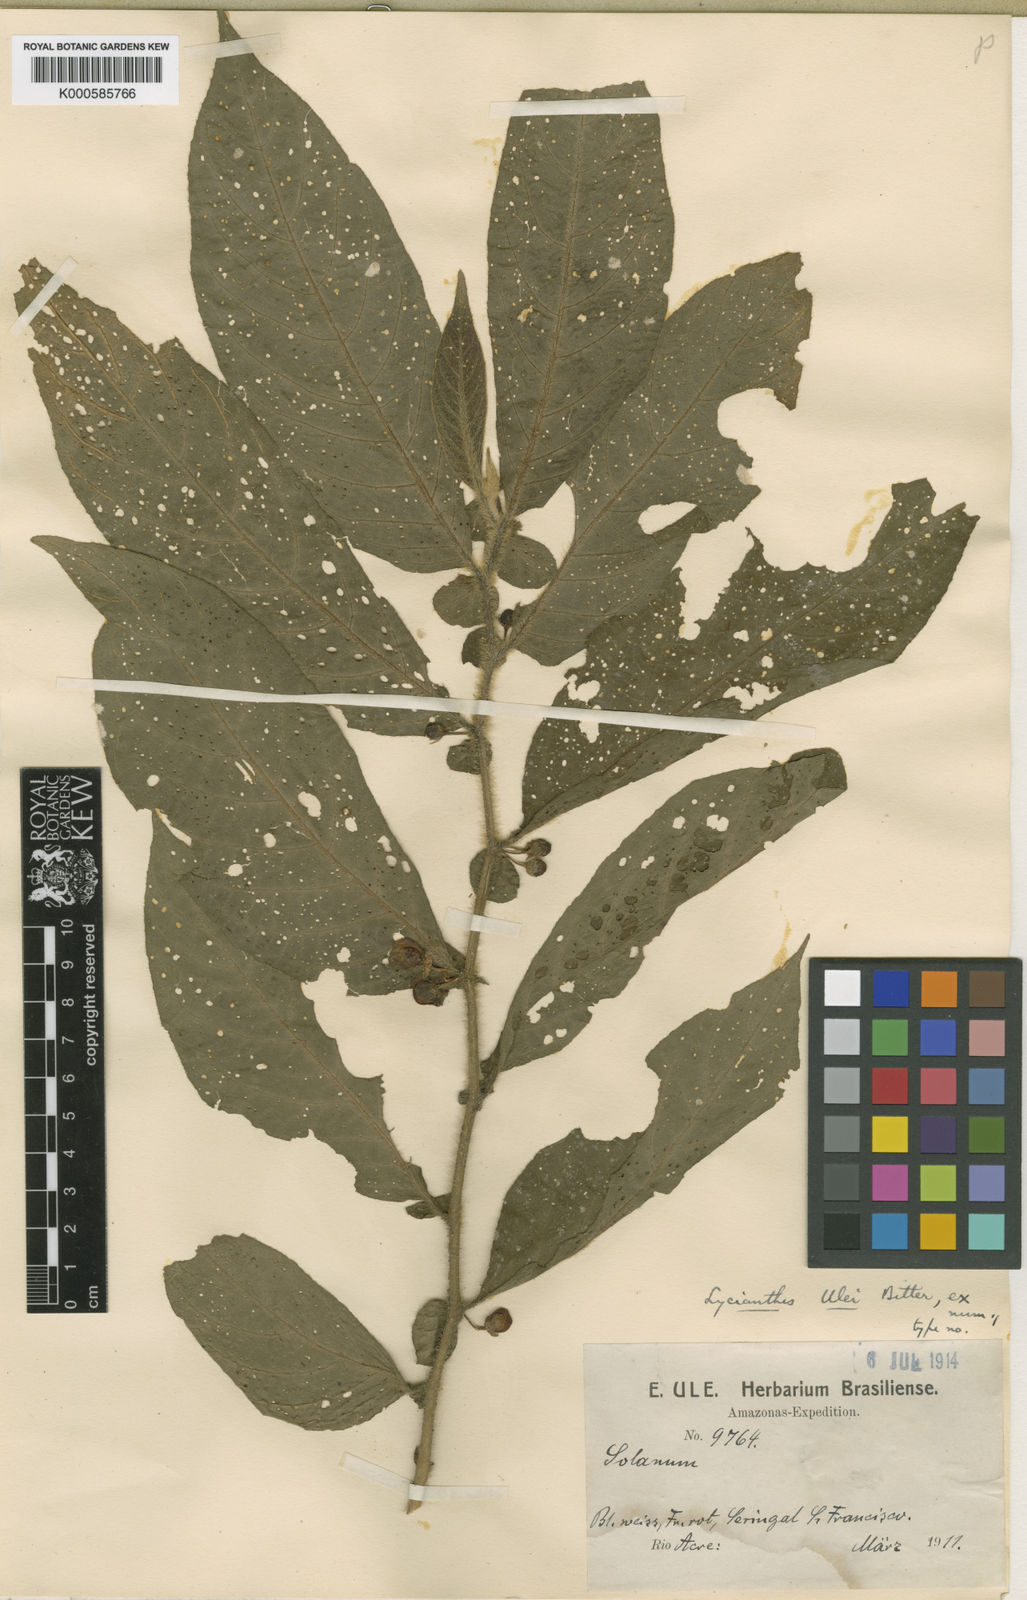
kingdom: Plantae
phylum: Tracheophyta
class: Magnoliopsida
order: Solanales
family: Solanaceae
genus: Lycianthes
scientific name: Lycianthes
